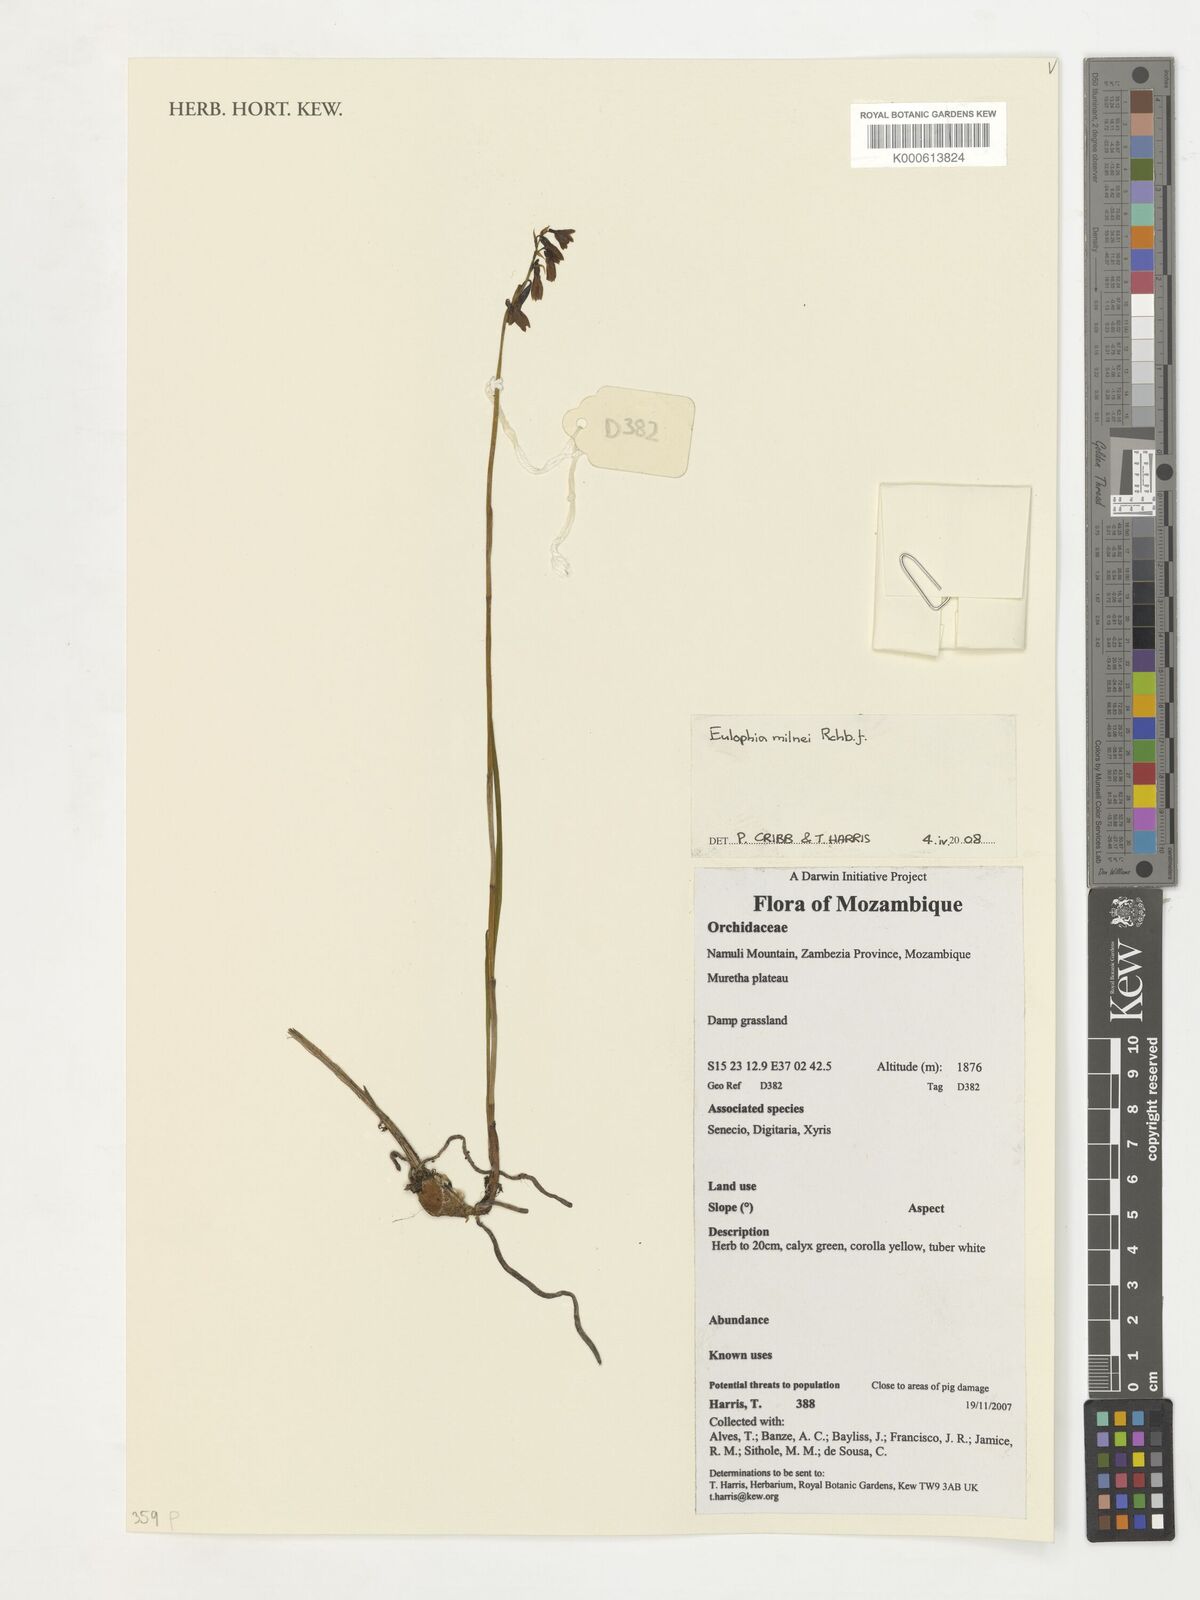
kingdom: Plantae
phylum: Tracheophyta
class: Liliopsida
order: Asparagales
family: Orchidaceae
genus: Eulophia
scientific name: Eulophia milnei
